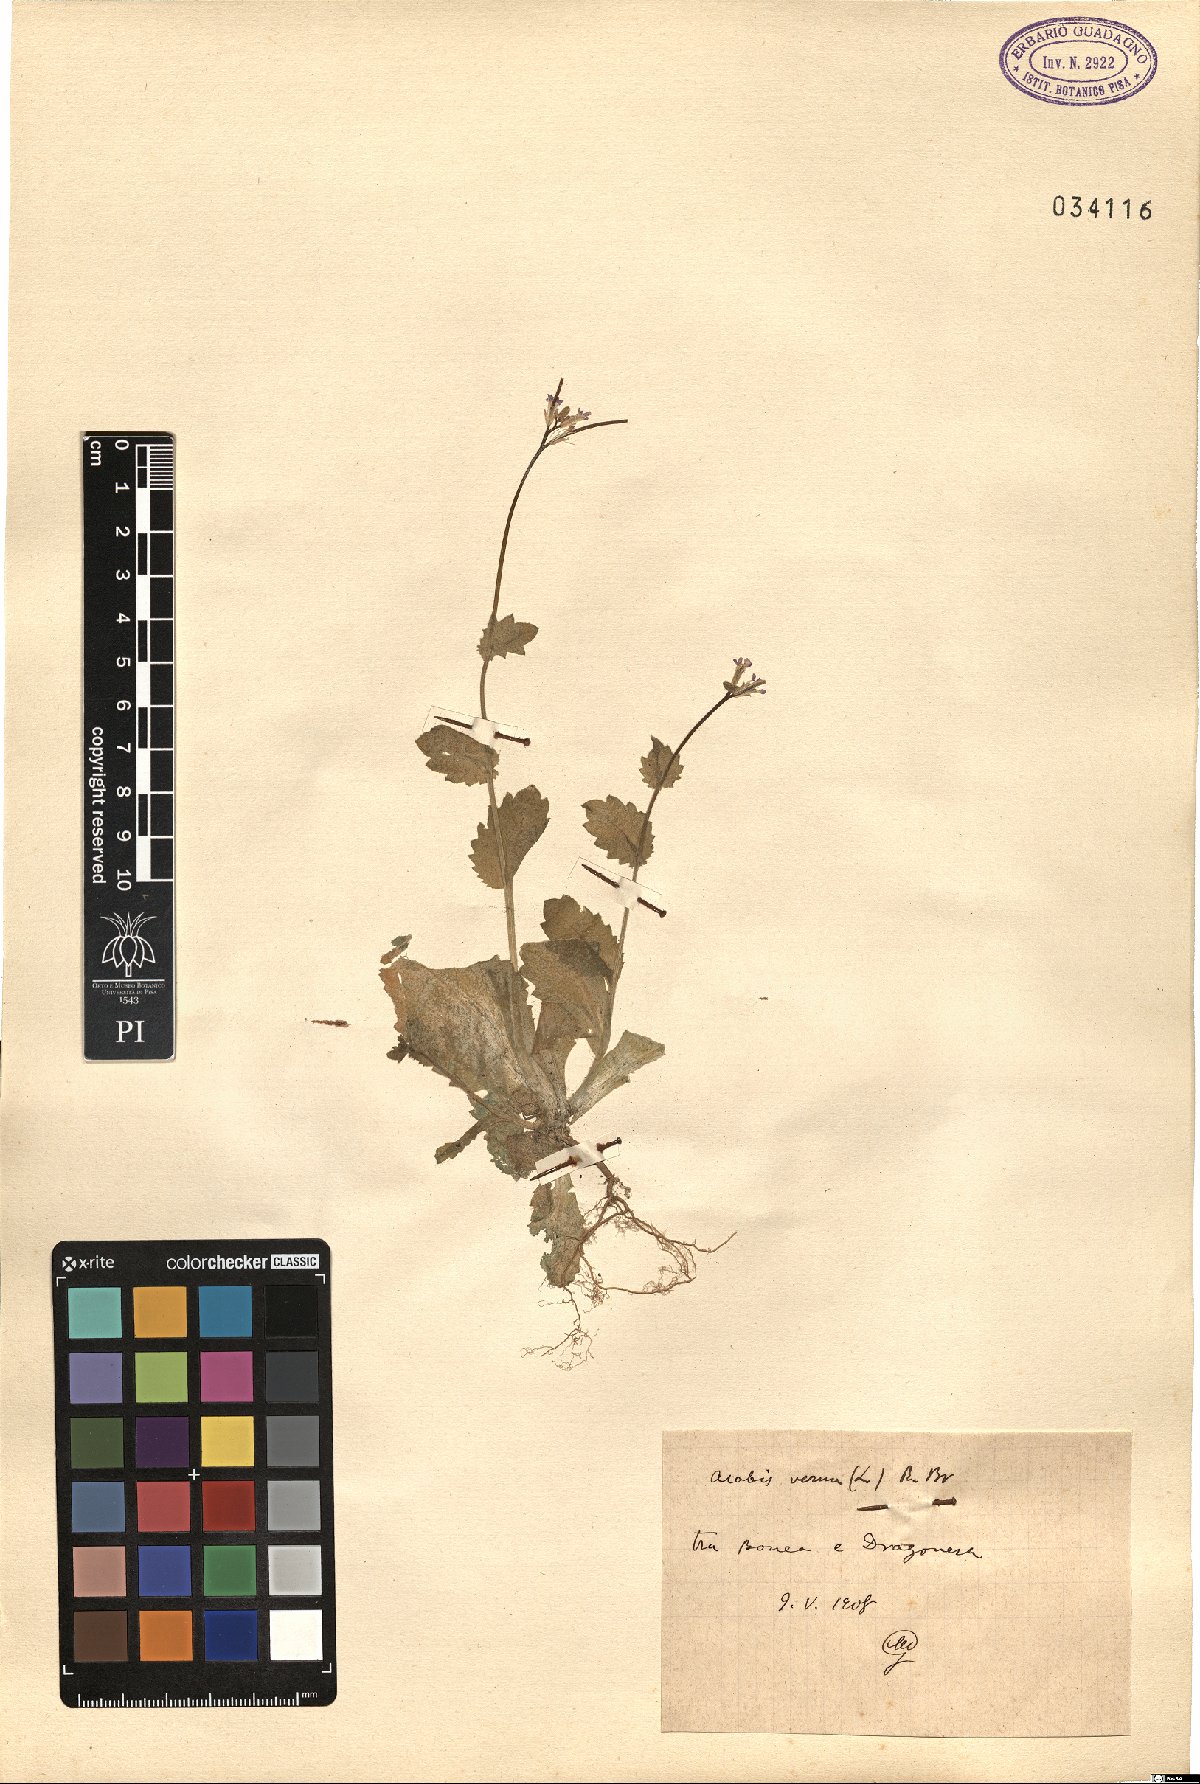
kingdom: Plantae
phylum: Tracheophyta
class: Magnoliopsida
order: Brassicales
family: Brassicaceae
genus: Arabis
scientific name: Arabis verna
